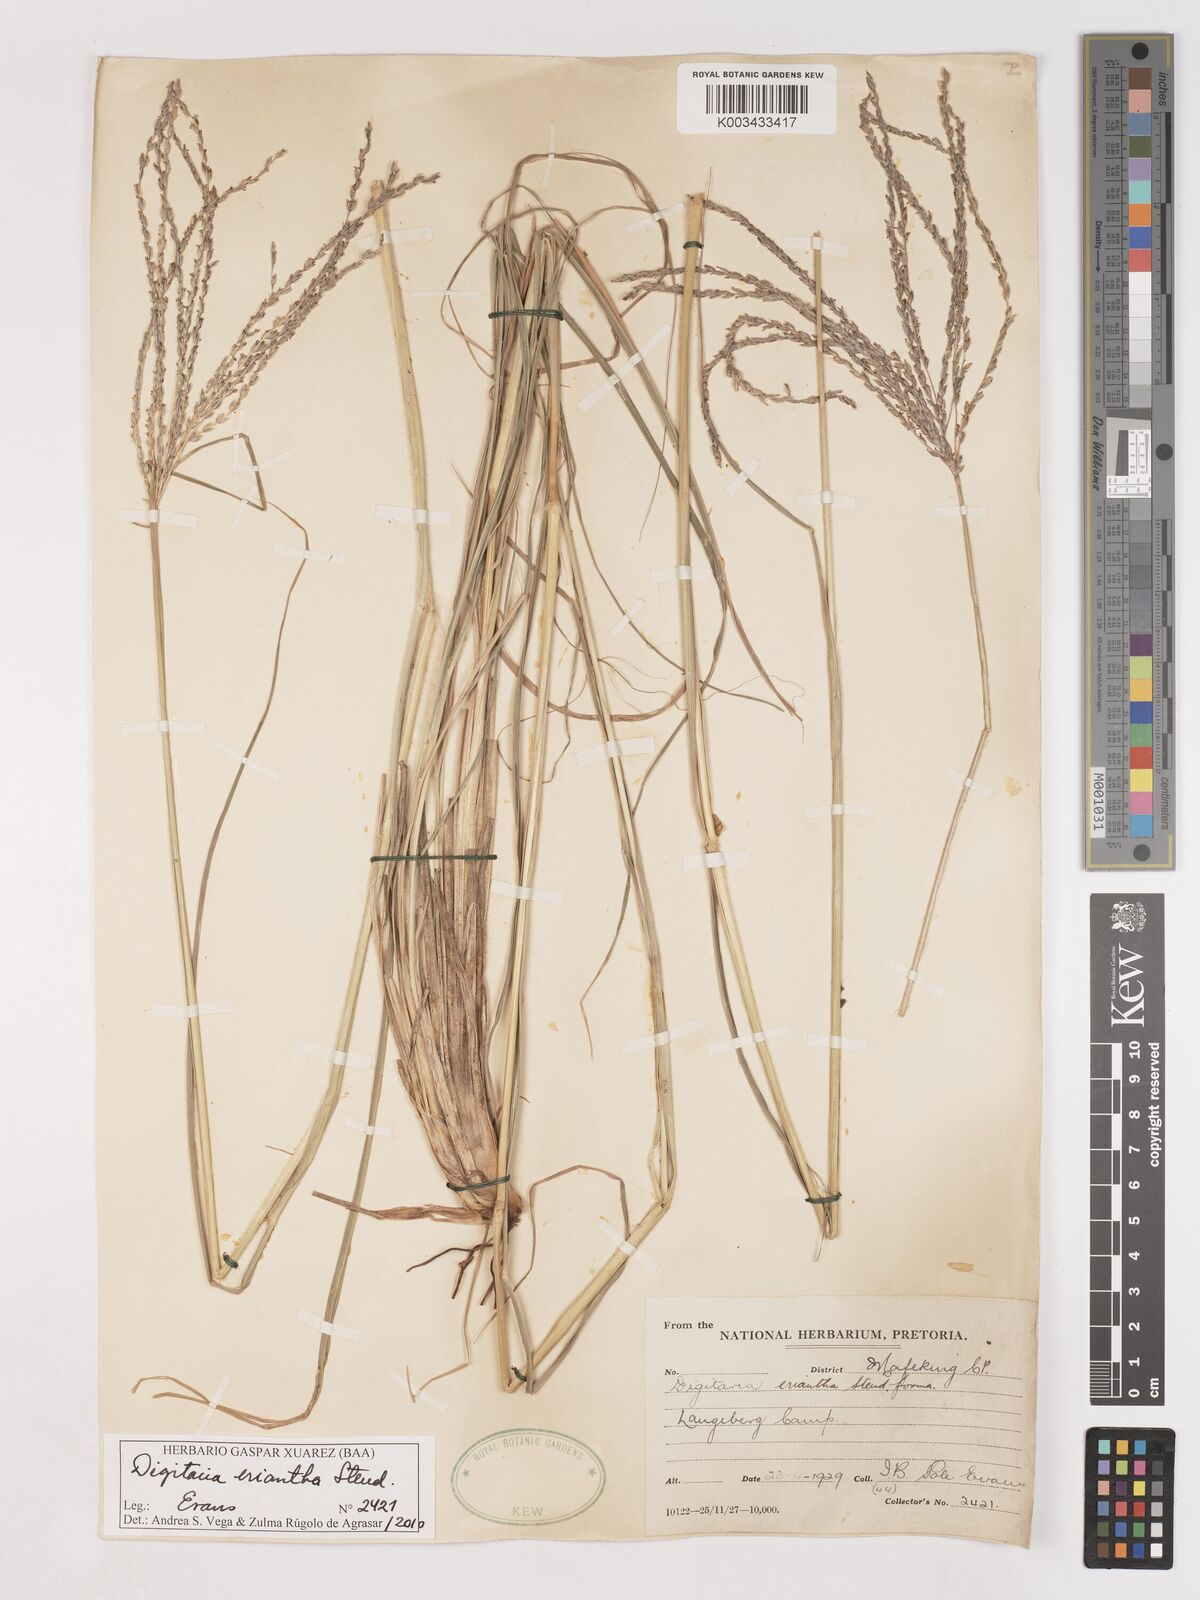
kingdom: Plantae
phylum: Tracheophyta
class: Liliopsida
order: Poales
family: Poaceae
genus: Digitaria
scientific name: Digitaria eriantha
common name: Digitgrass
